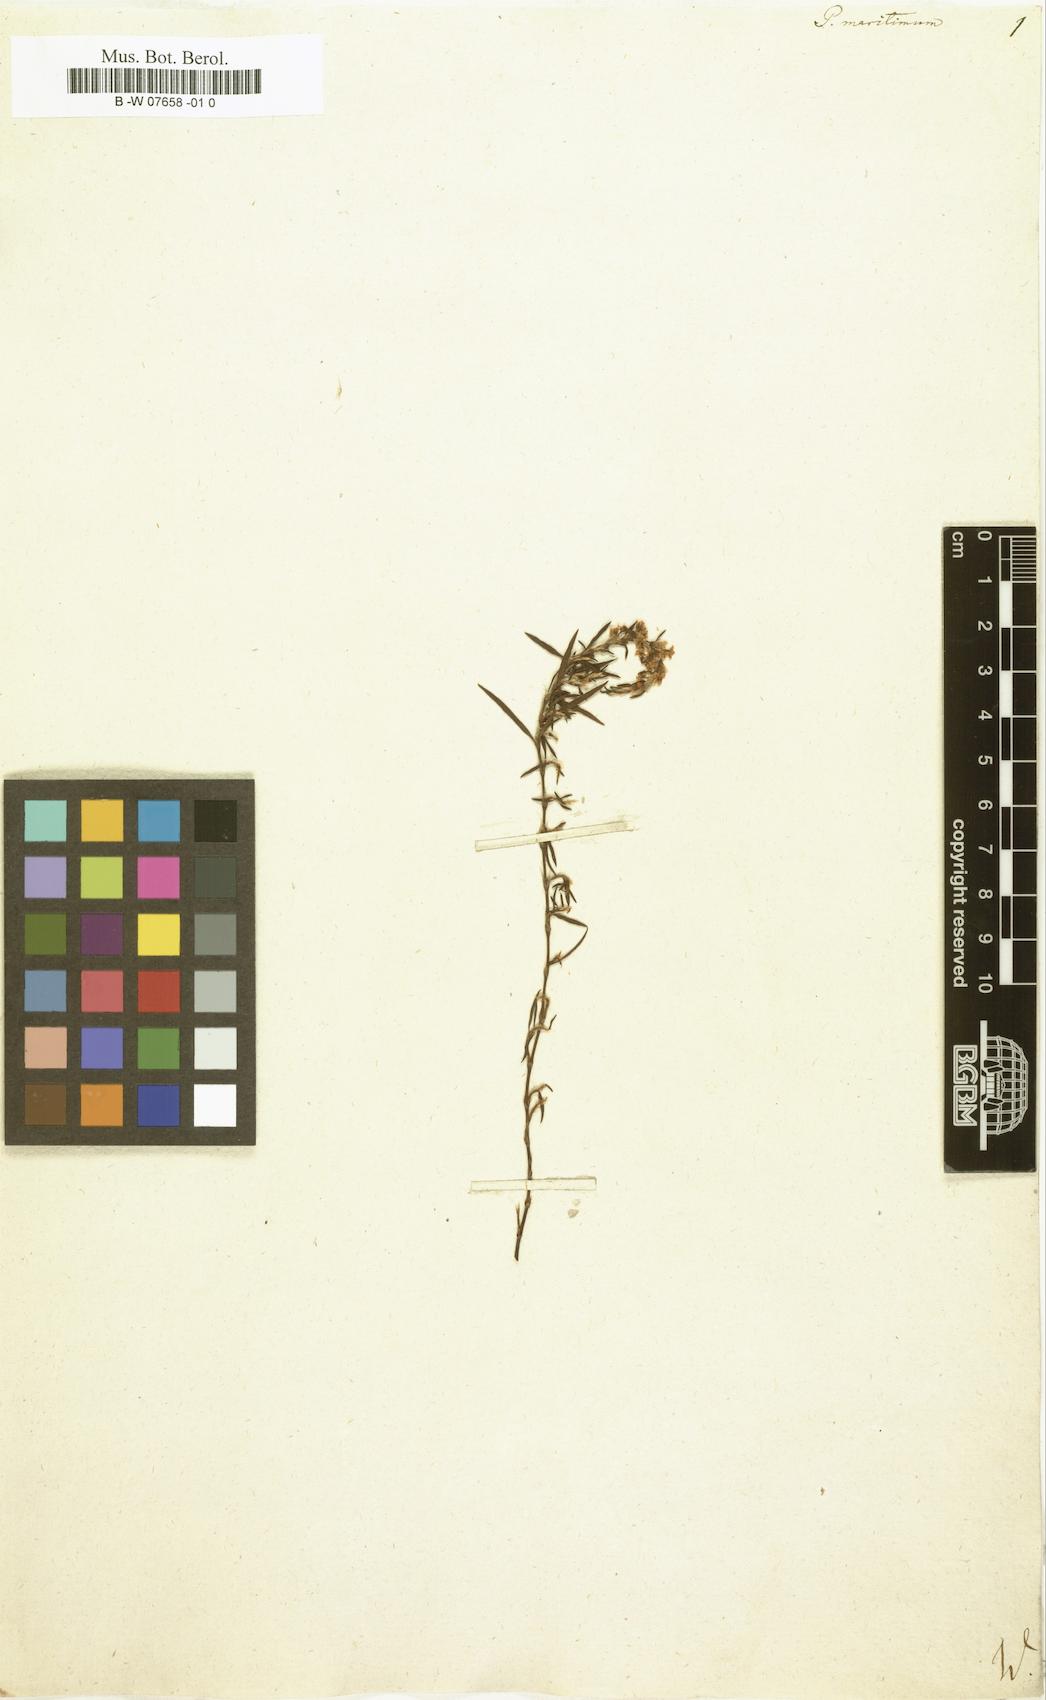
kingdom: Plantae
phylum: Tracheophyta
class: Magnoliopsida
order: Caryophyllales
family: Polygonaceae
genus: Polygonum
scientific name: Polygonum maritimum
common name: Sea knotgrass
